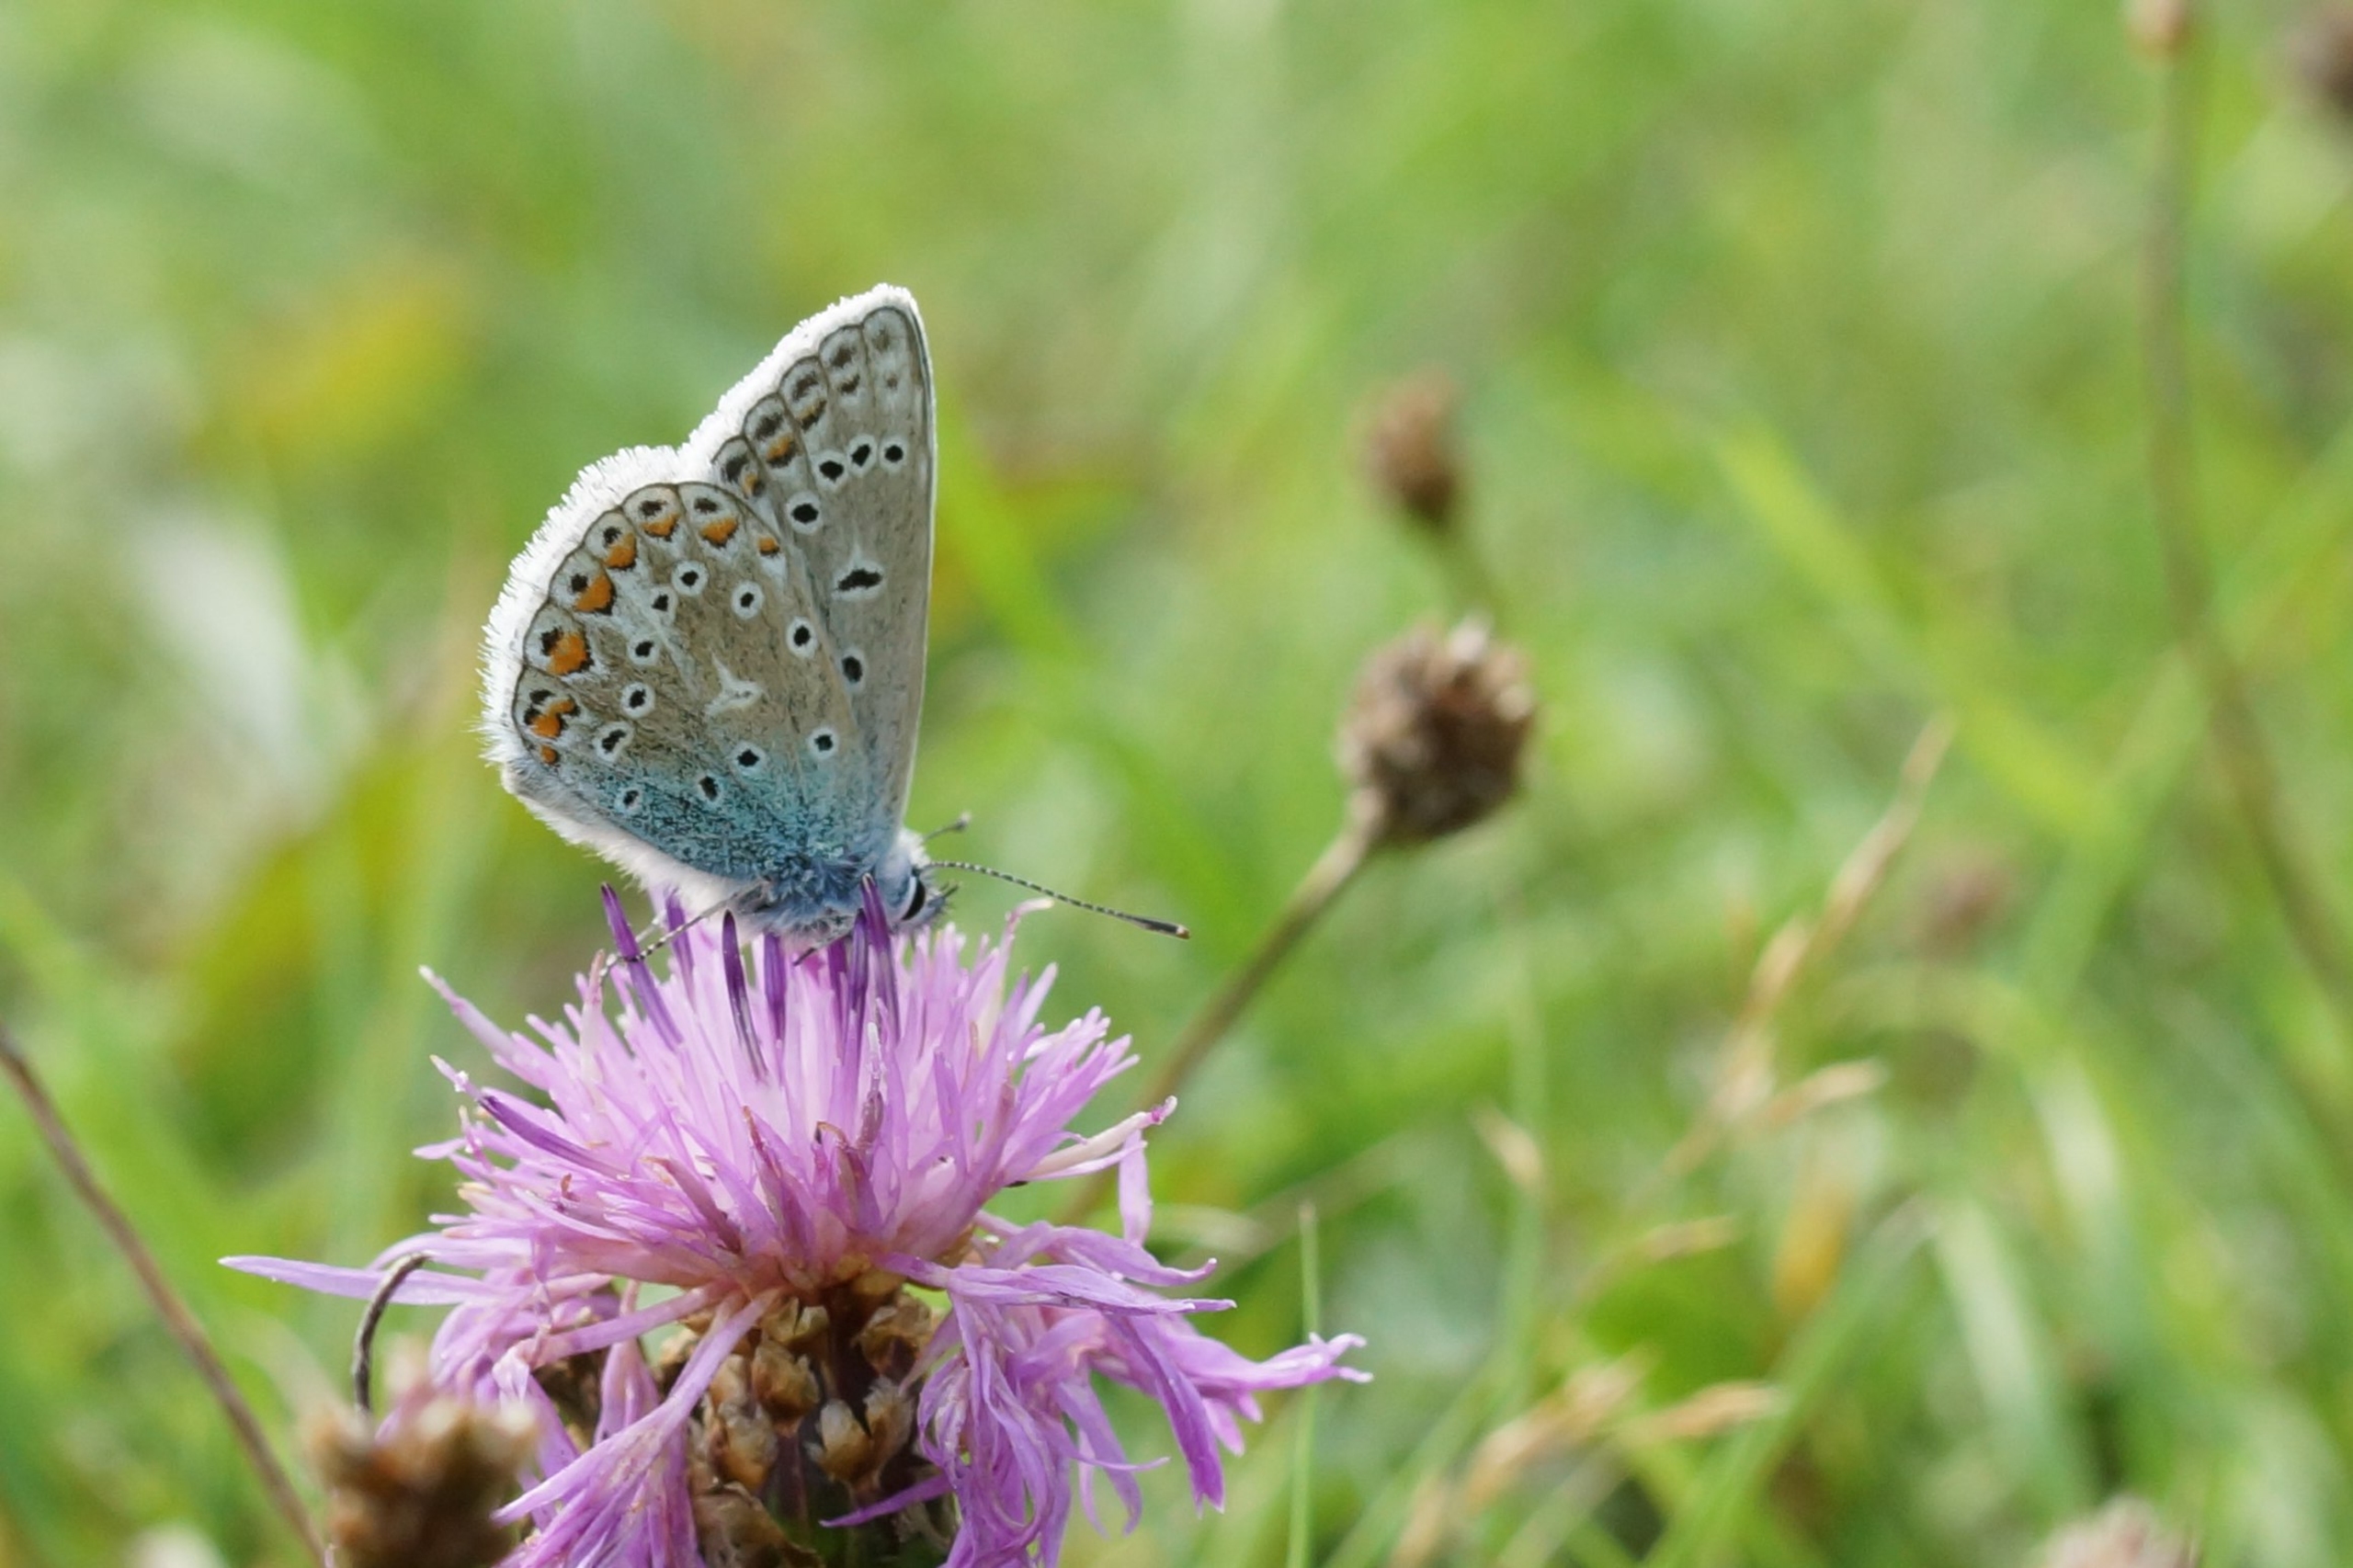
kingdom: Animalia
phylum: Arthropoda
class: Insecta
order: Lepidoptera
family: Lycaenidae
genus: Polyommatus
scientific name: Polyommatus icarus
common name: Almindelig blåfugl
